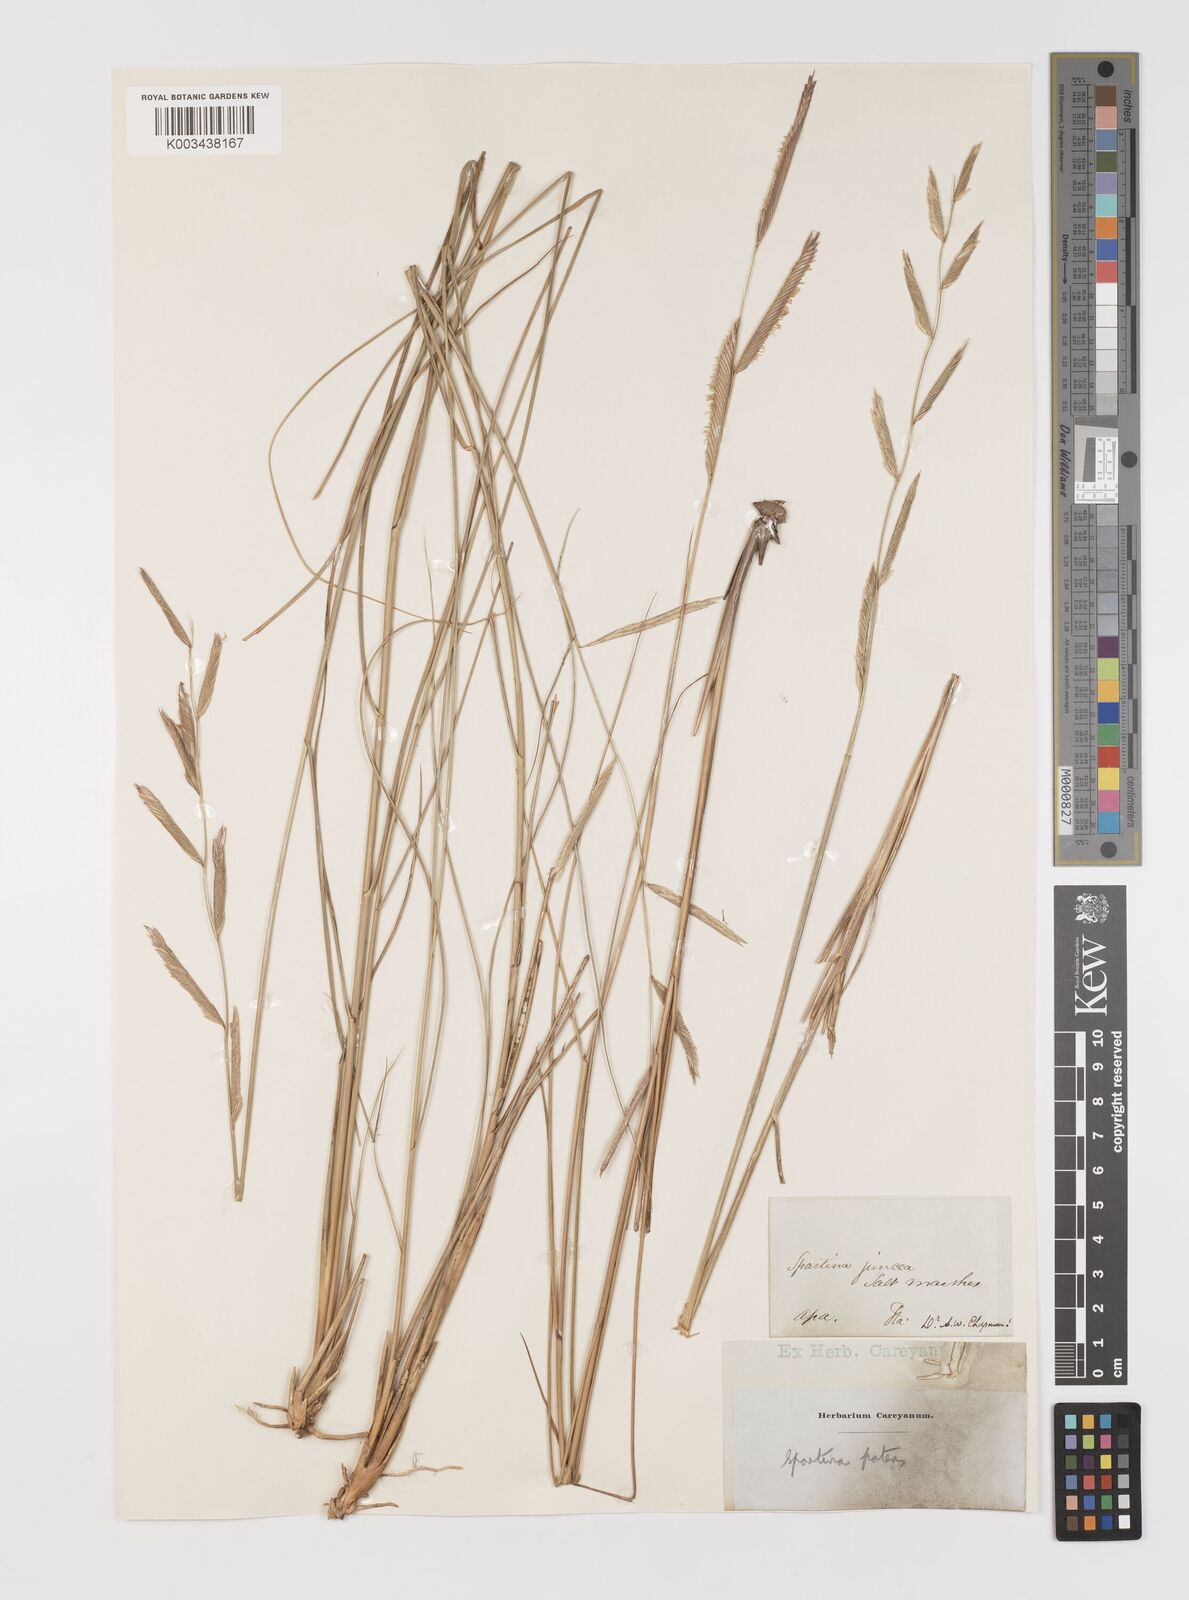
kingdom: Plantae
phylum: Tracheophyta
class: Liliopsida
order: Poales
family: Poaceae
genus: Sporobolus
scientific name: Sporobolus pumilus
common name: Highwater grass
